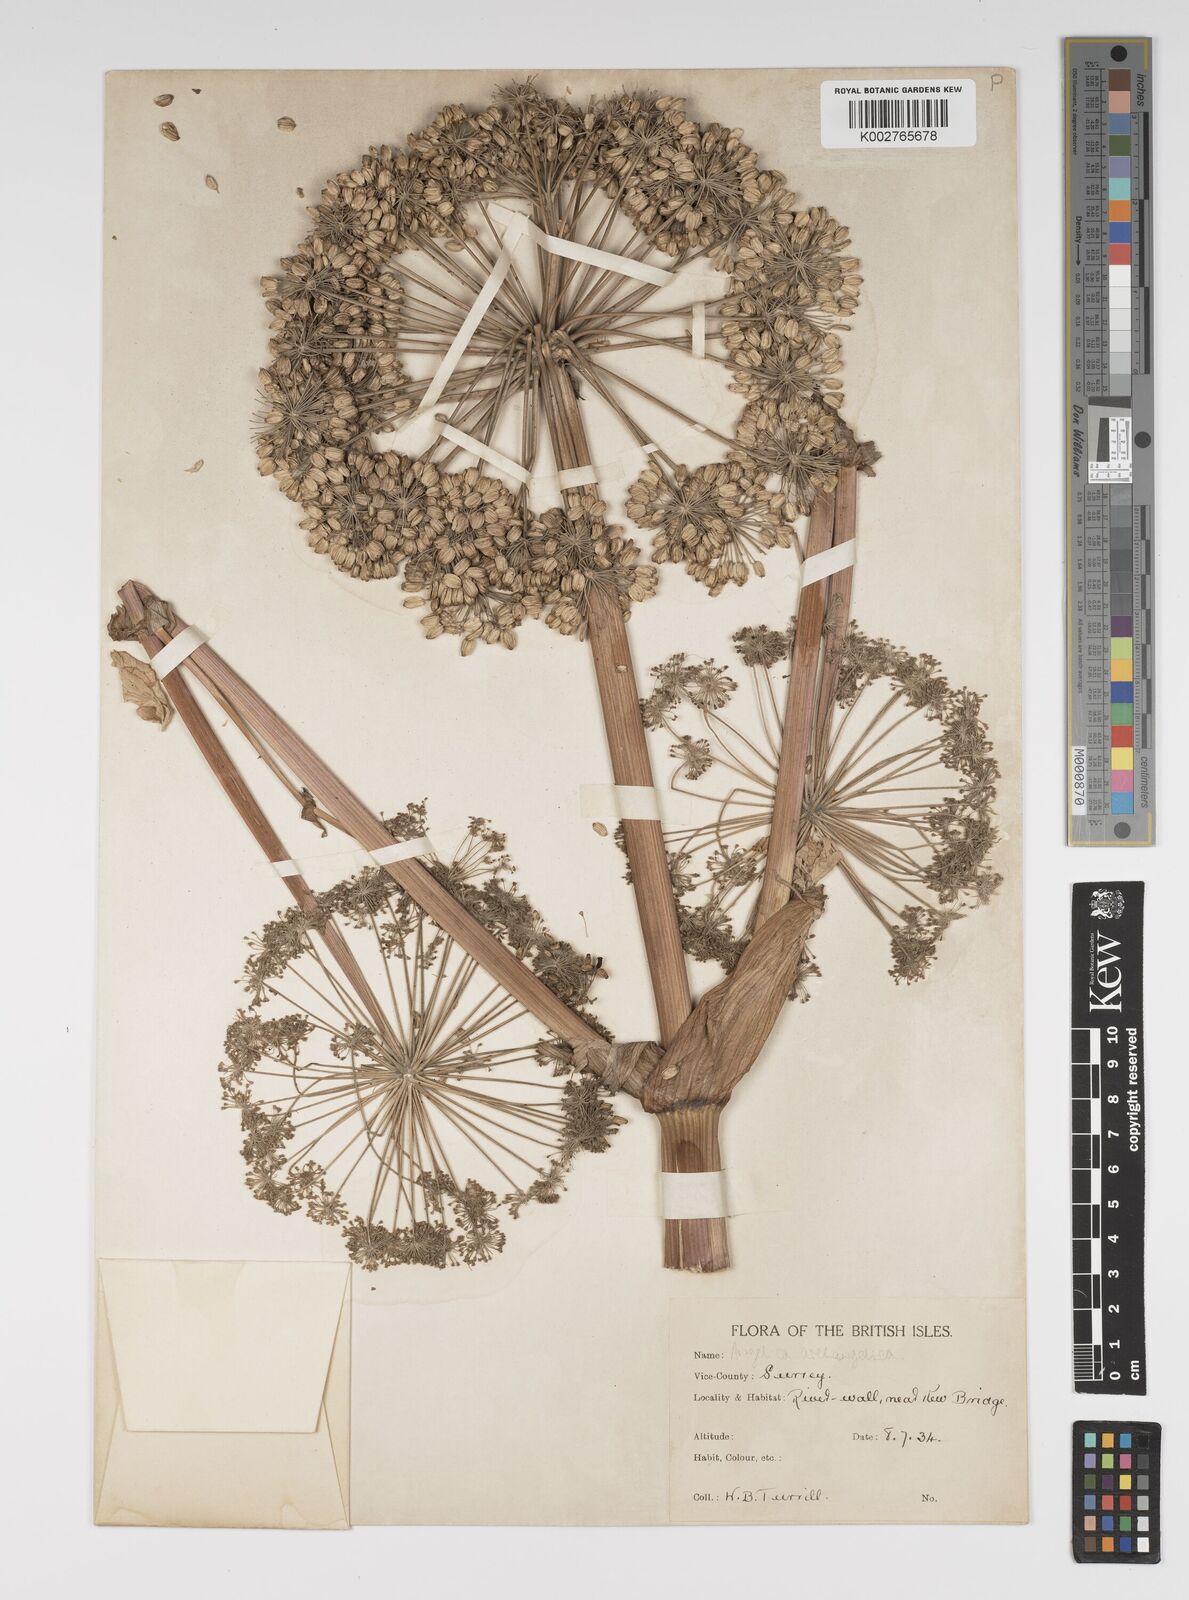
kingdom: Plantae
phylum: Tracheophyta
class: Magnoliopsida
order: Apiales
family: Apiaceae
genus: Angelica
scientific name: Angelica archangelica
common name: Garden angelica
